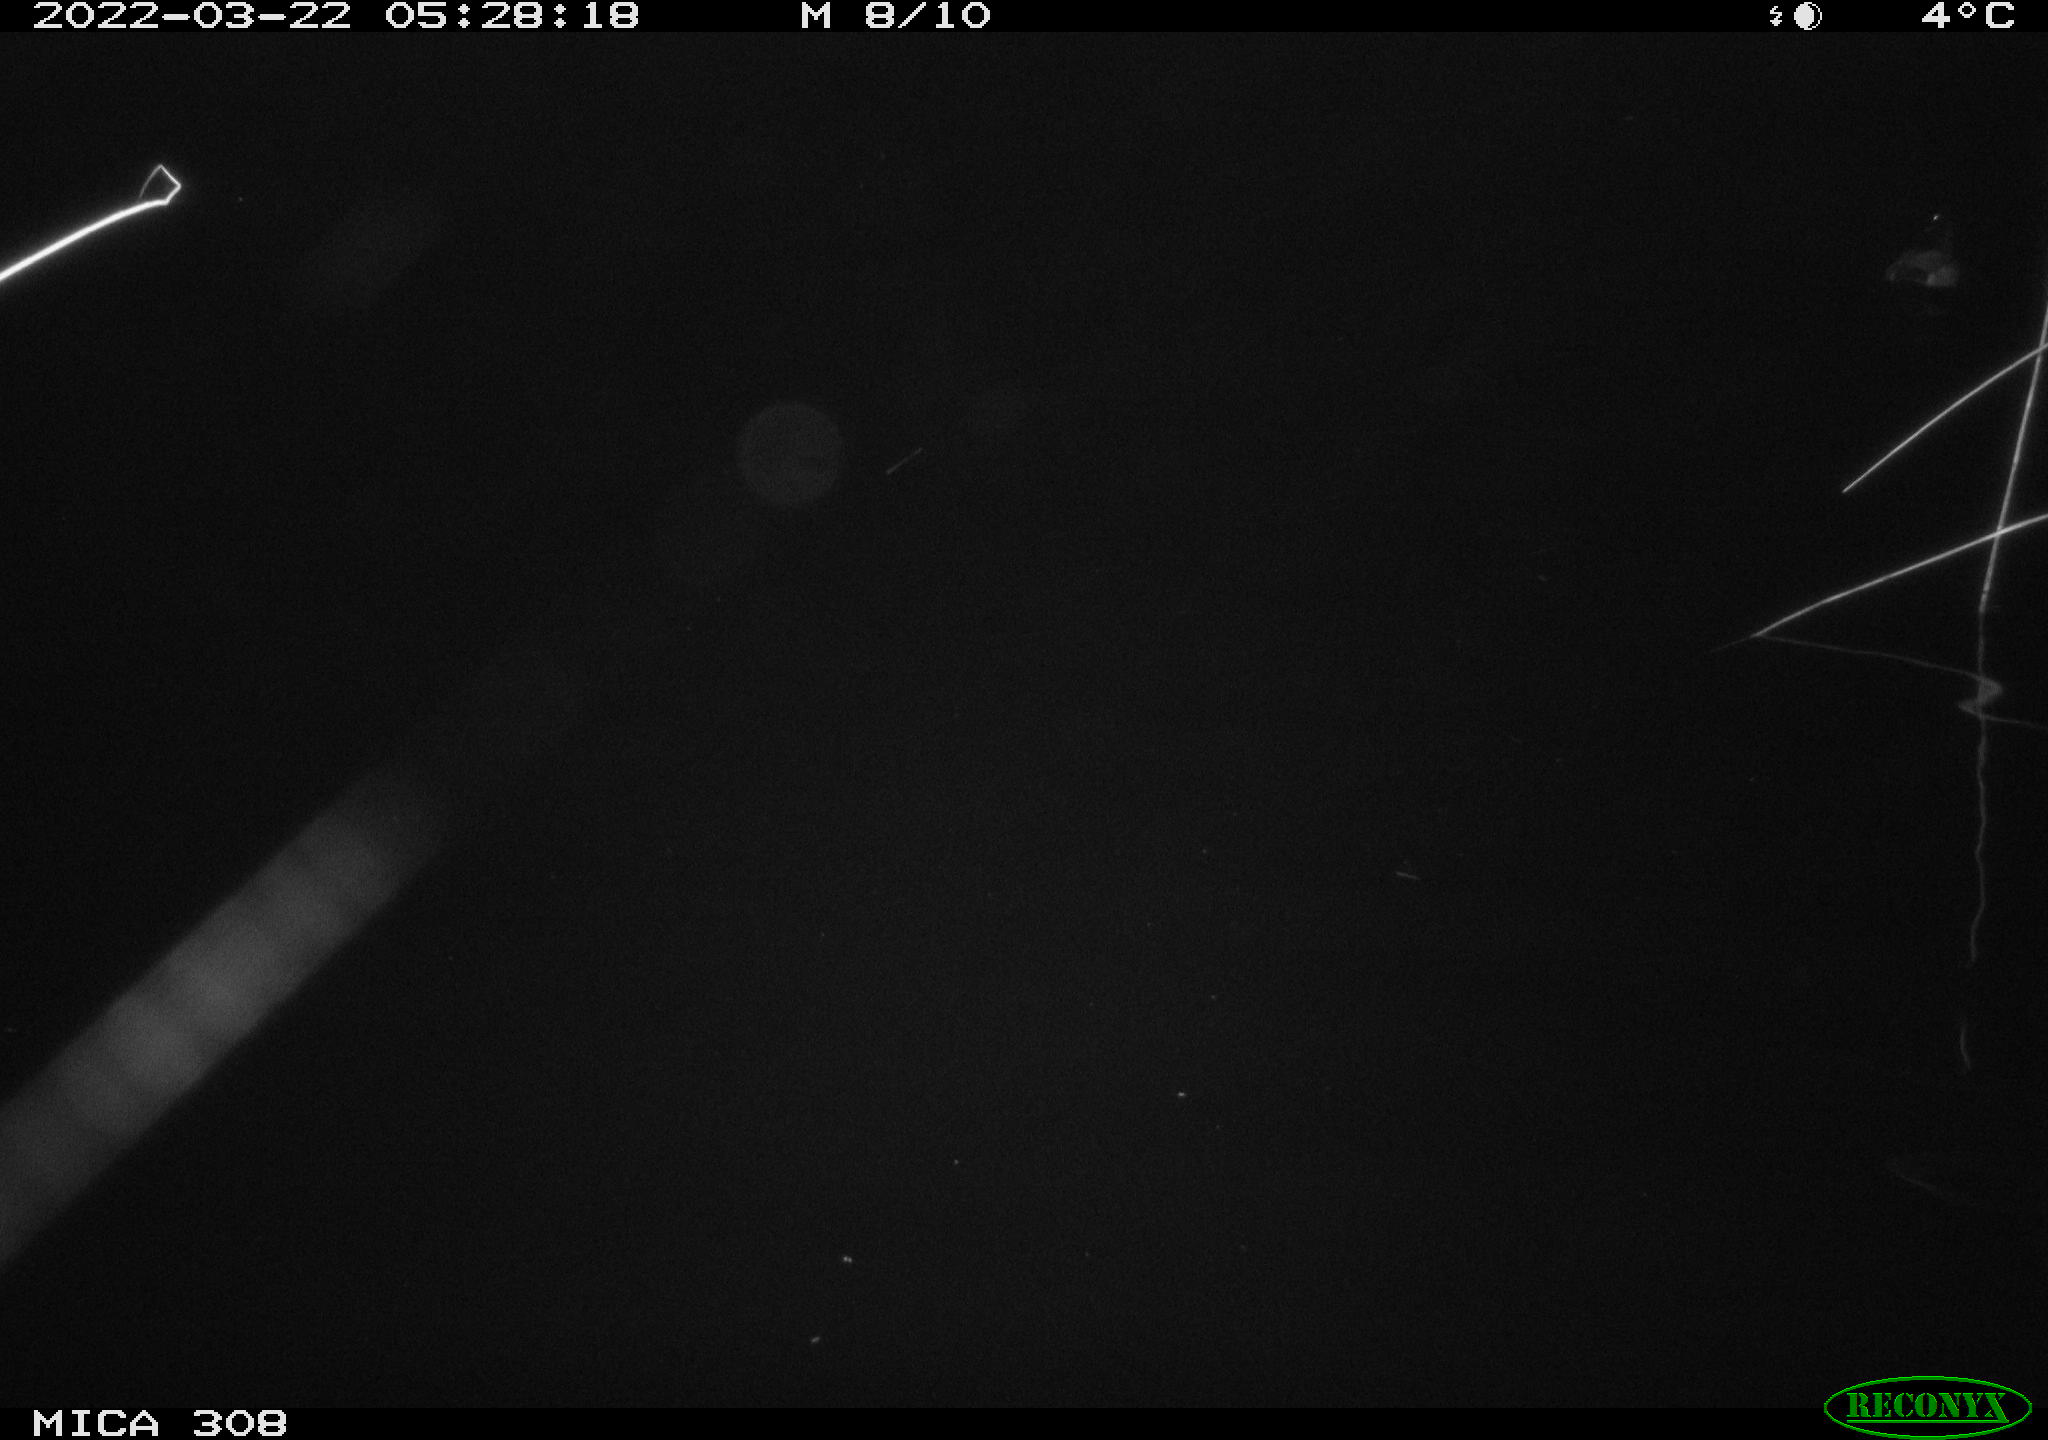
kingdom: Animalia
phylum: Chordata
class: Aves
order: Anseriformes
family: Anatidae
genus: Anas
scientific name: Anas platyrhynchos
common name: Mallard
